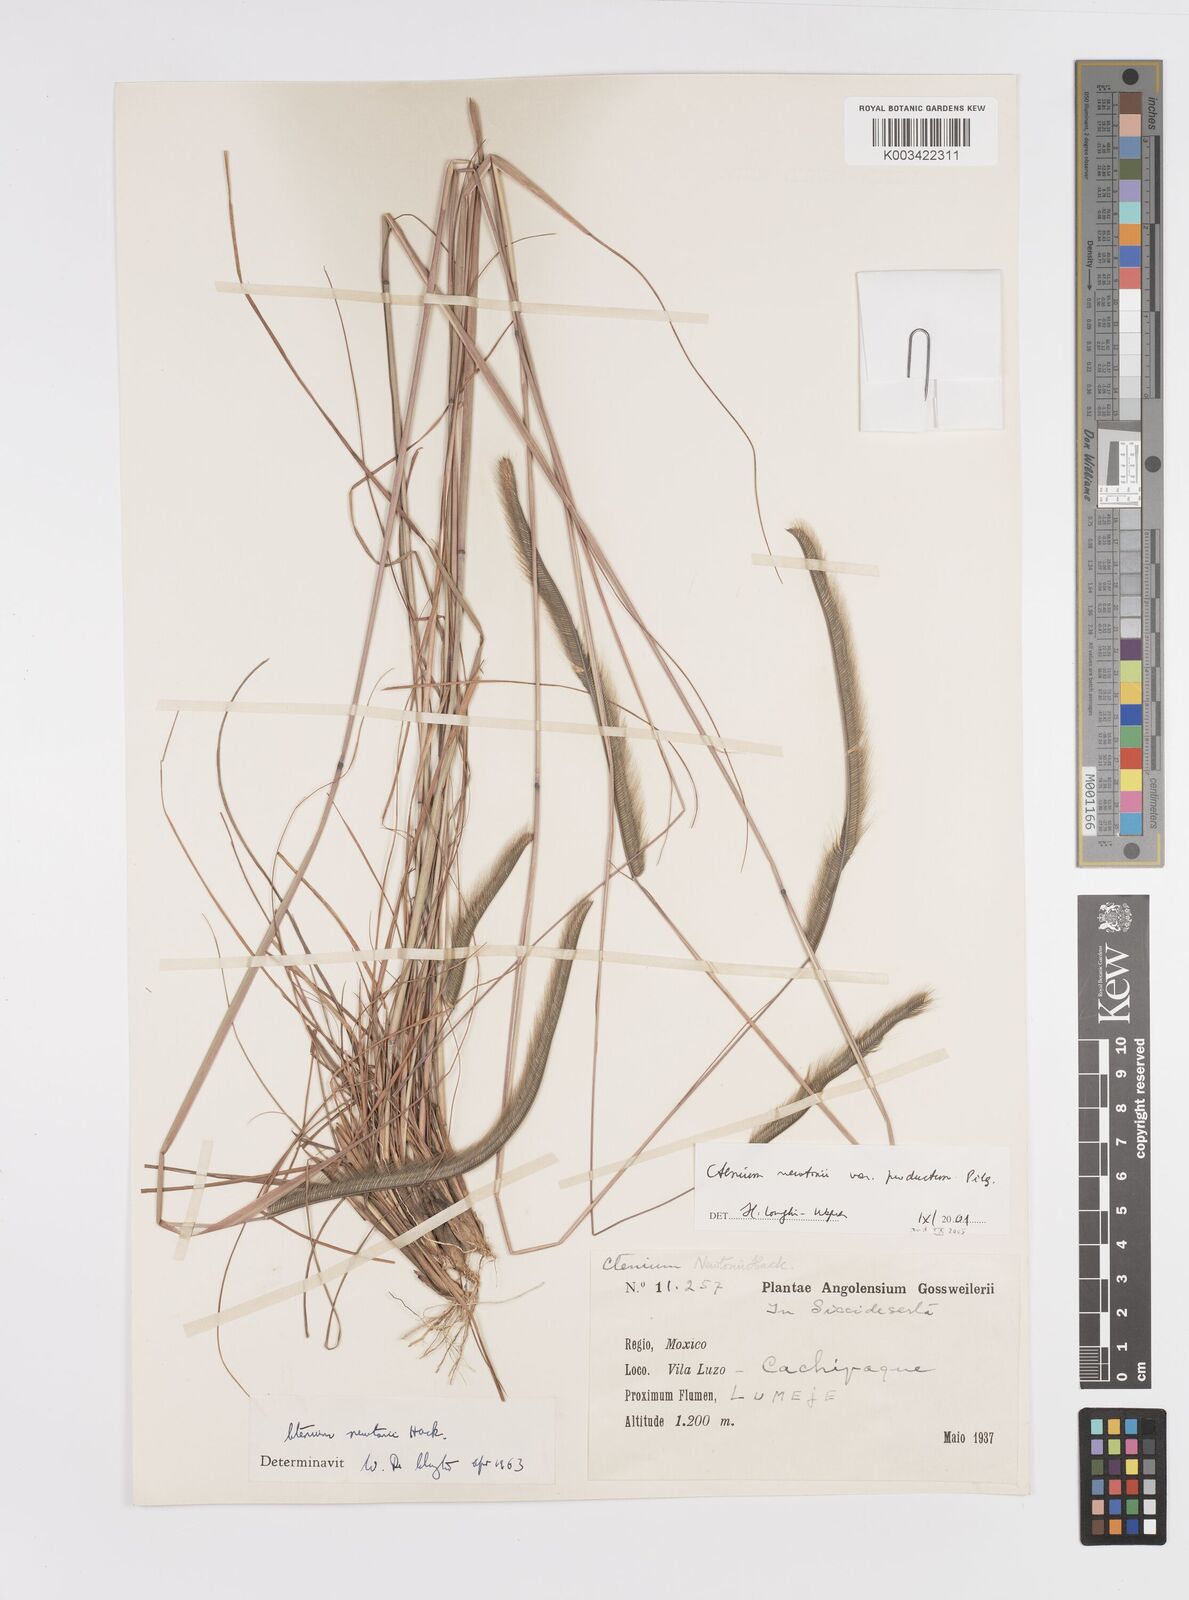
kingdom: Plantae
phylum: Tracheophyta
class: Liliopsida
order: Poales
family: Poaceae
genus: Ctenium
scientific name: Ctenium newtonii
